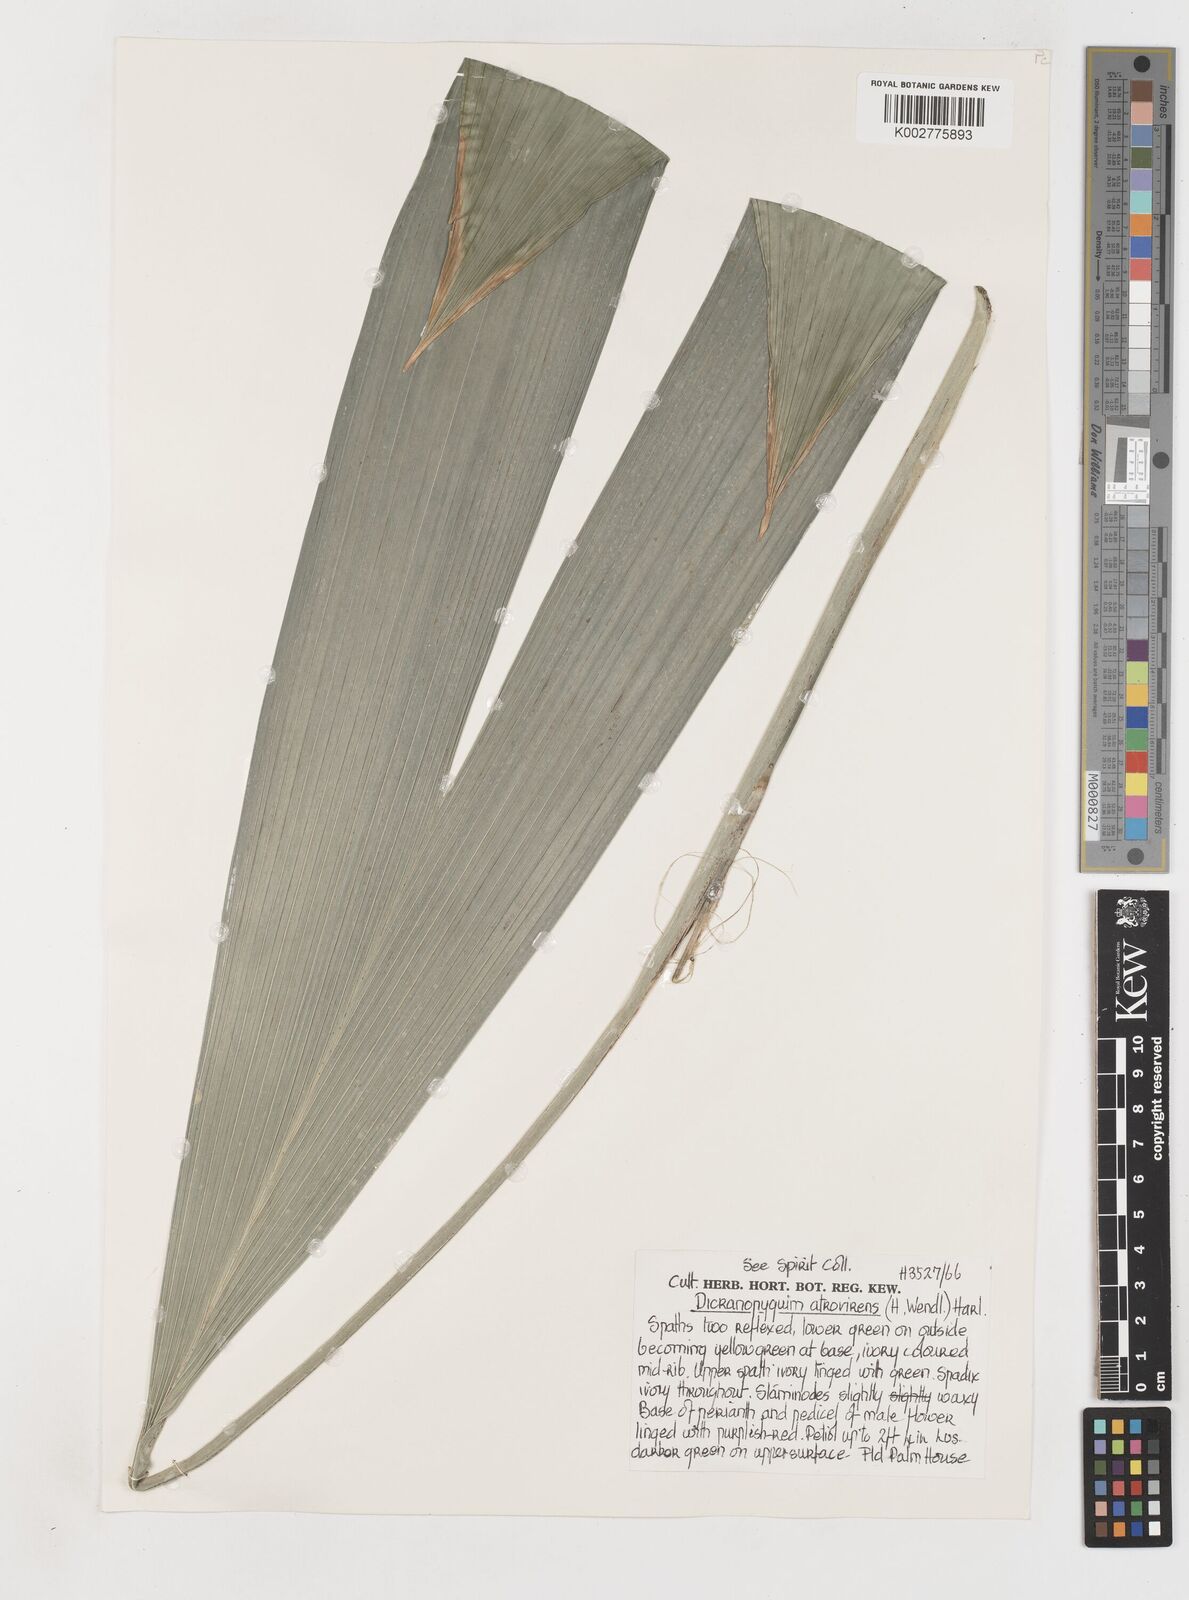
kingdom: Plantae
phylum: Tracheophyta
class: Liliopsida
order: Pandanales
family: Cyclanthaceae
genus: Dicranopygium
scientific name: Dicranopygium atrovirens
